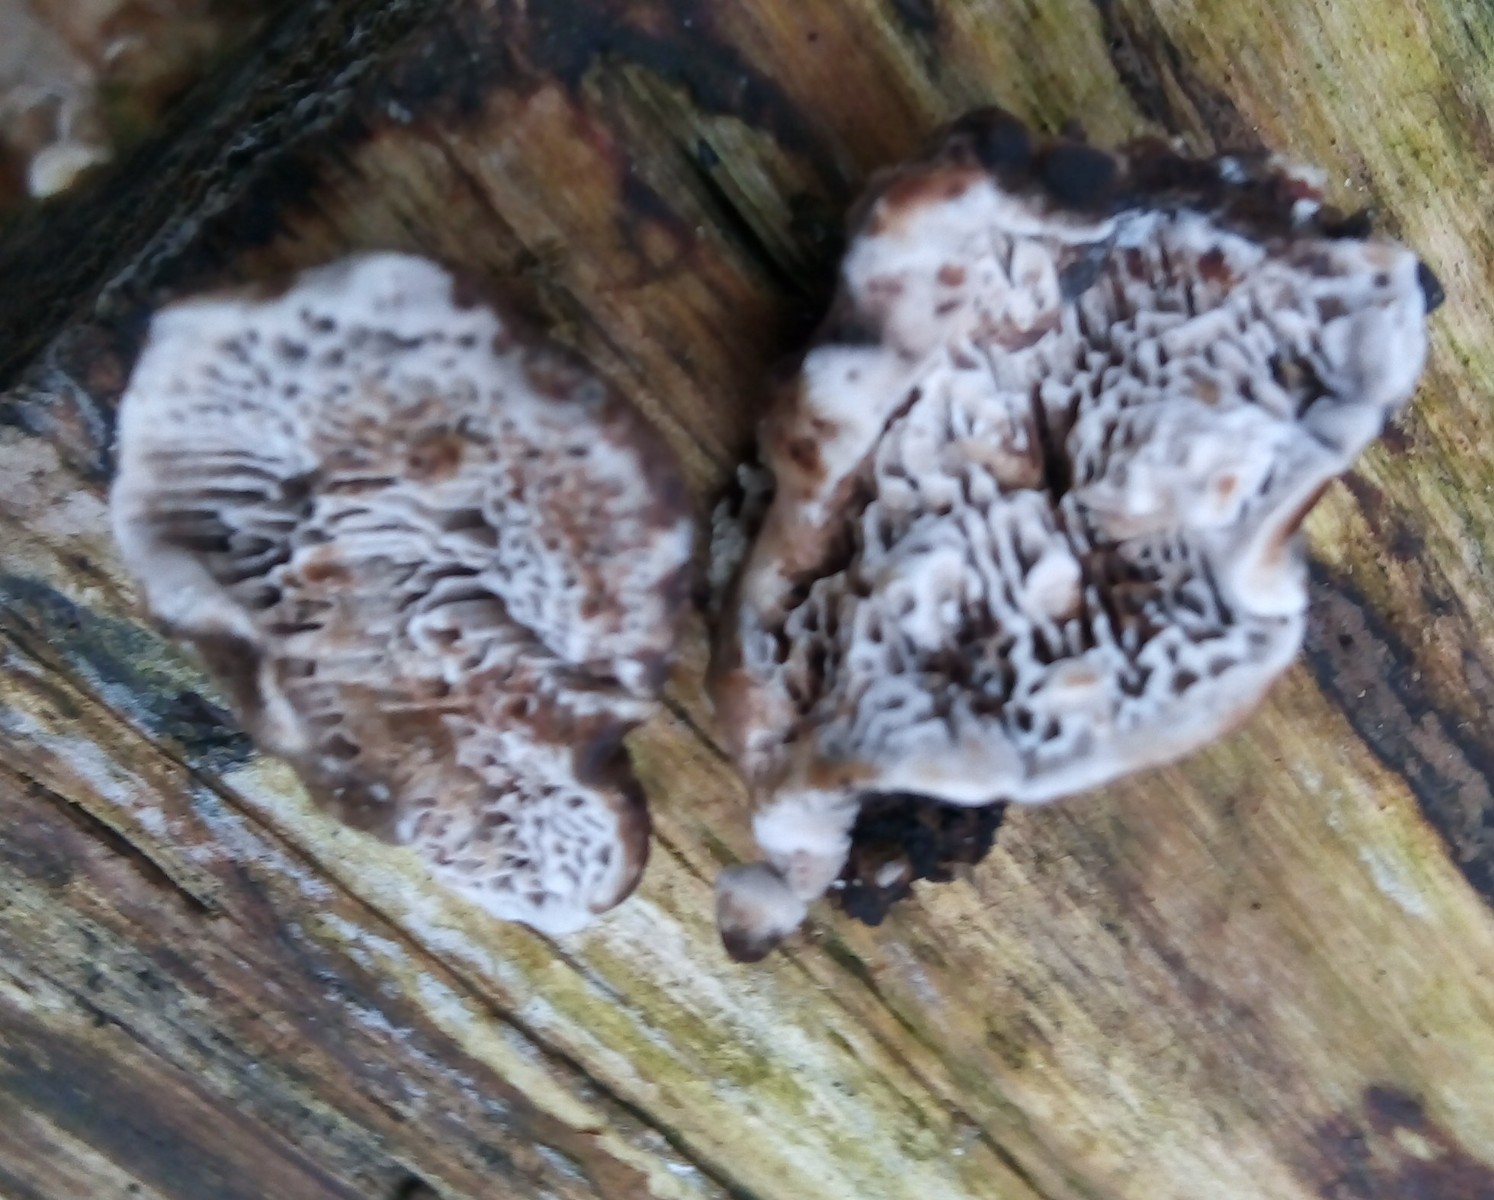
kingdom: Fungi
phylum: Basidiomycota
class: Agaricomycetes
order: Polyporales
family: Polyporaceae
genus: Podofomes
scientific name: Podofomes mollis
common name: blød begporesvamp
